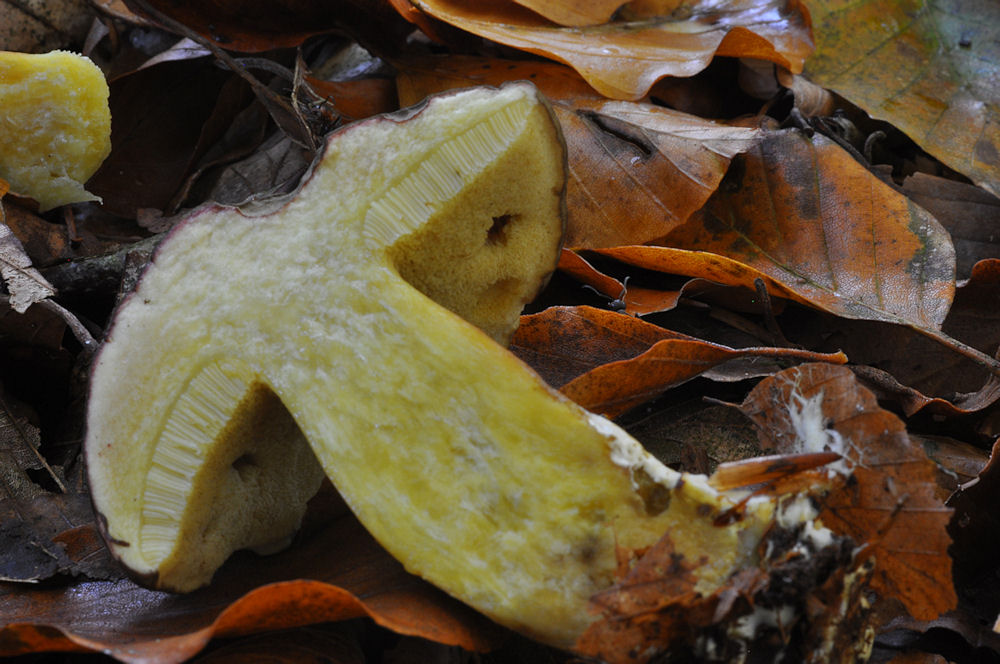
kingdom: Fungi
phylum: Basidiomycota
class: Agaricomycetes
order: Boletales
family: Boletaceae
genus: Xerocomellus
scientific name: Xerocomellus pruinatus
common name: dugget rørhat
